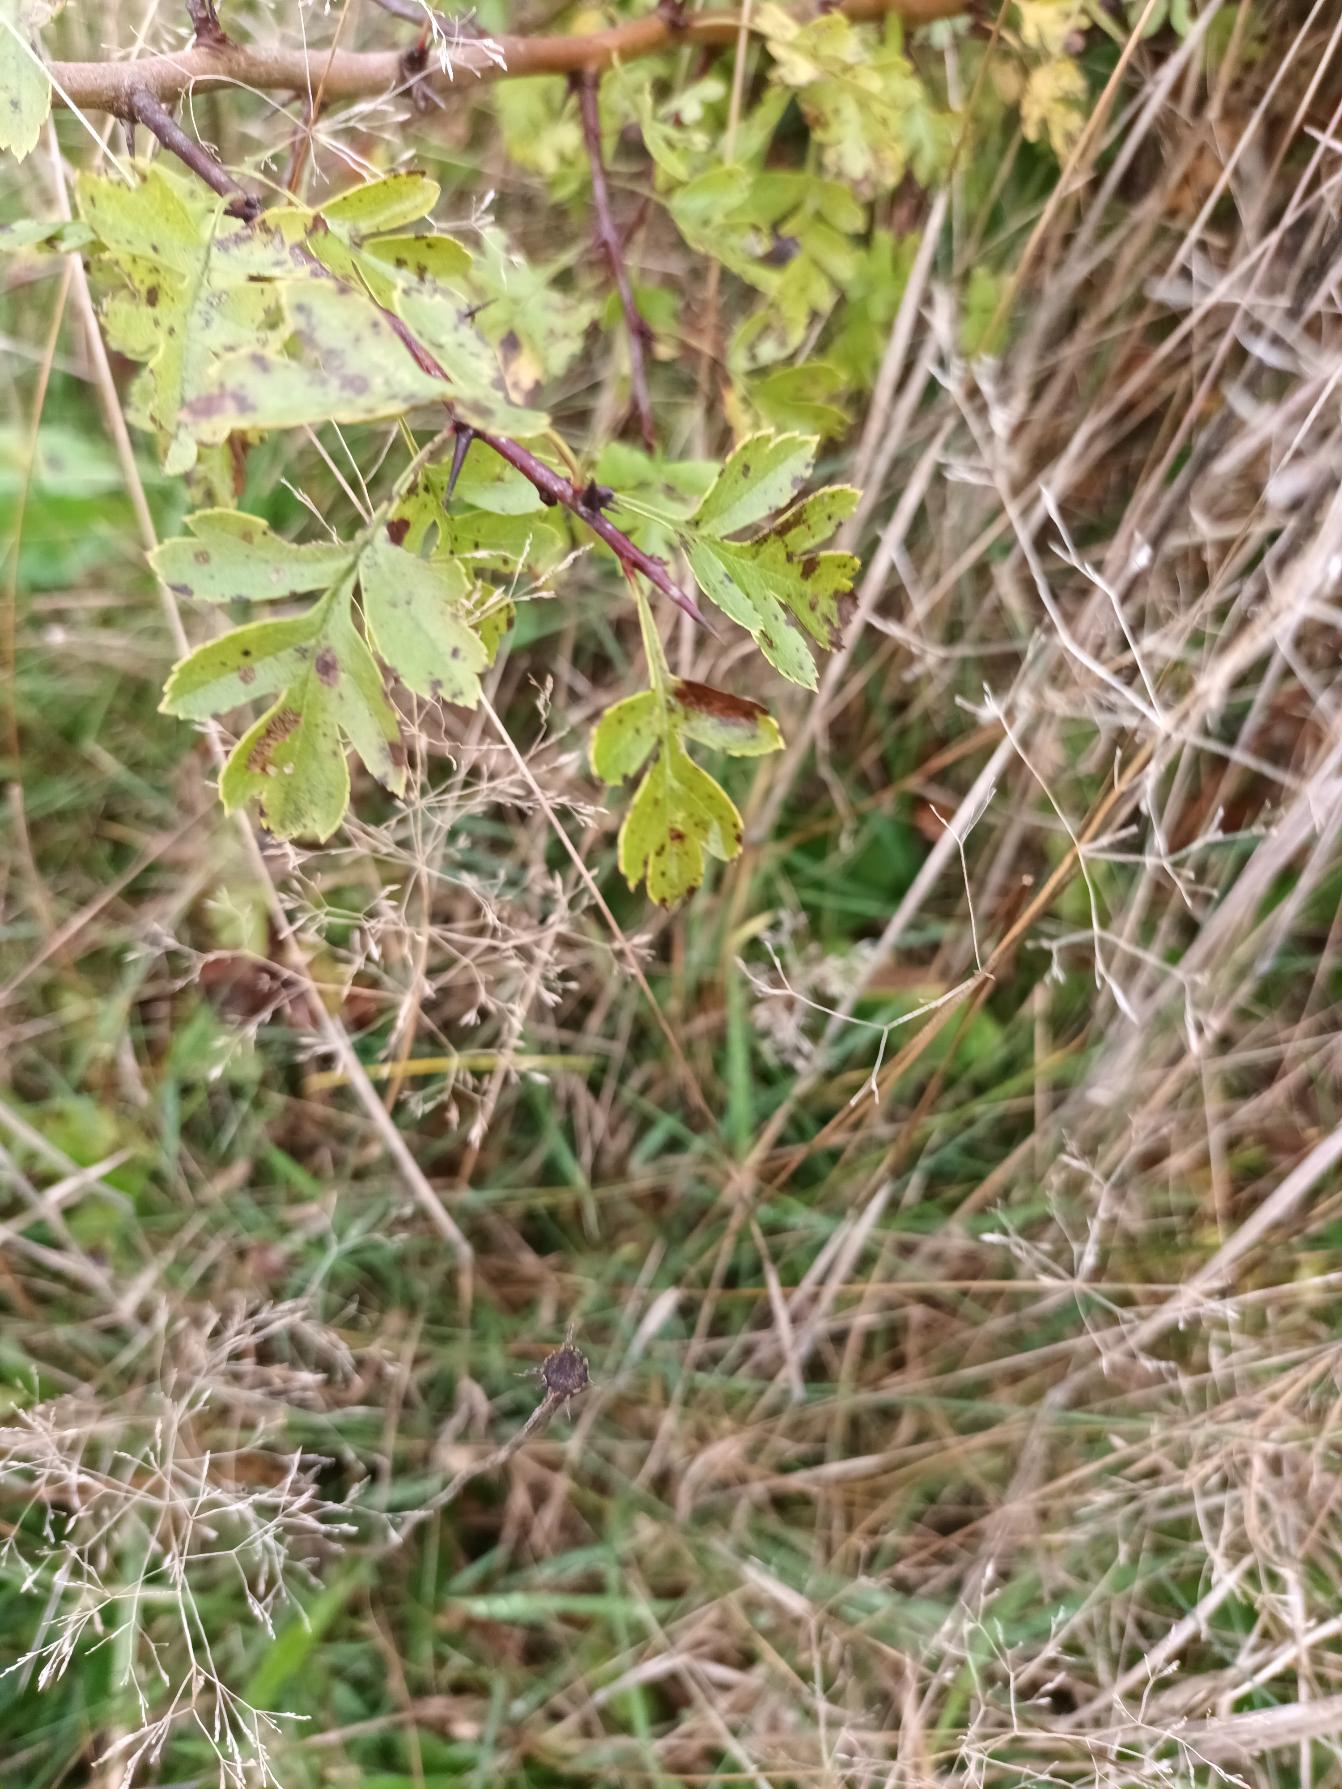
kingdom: Plantae
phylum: Tracheophyta
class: Magnoliopsida
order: Rosales
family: Rosaceae
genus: Crataegus
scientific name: Crataegus monogyna
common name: Engriflet hvidtjørn
